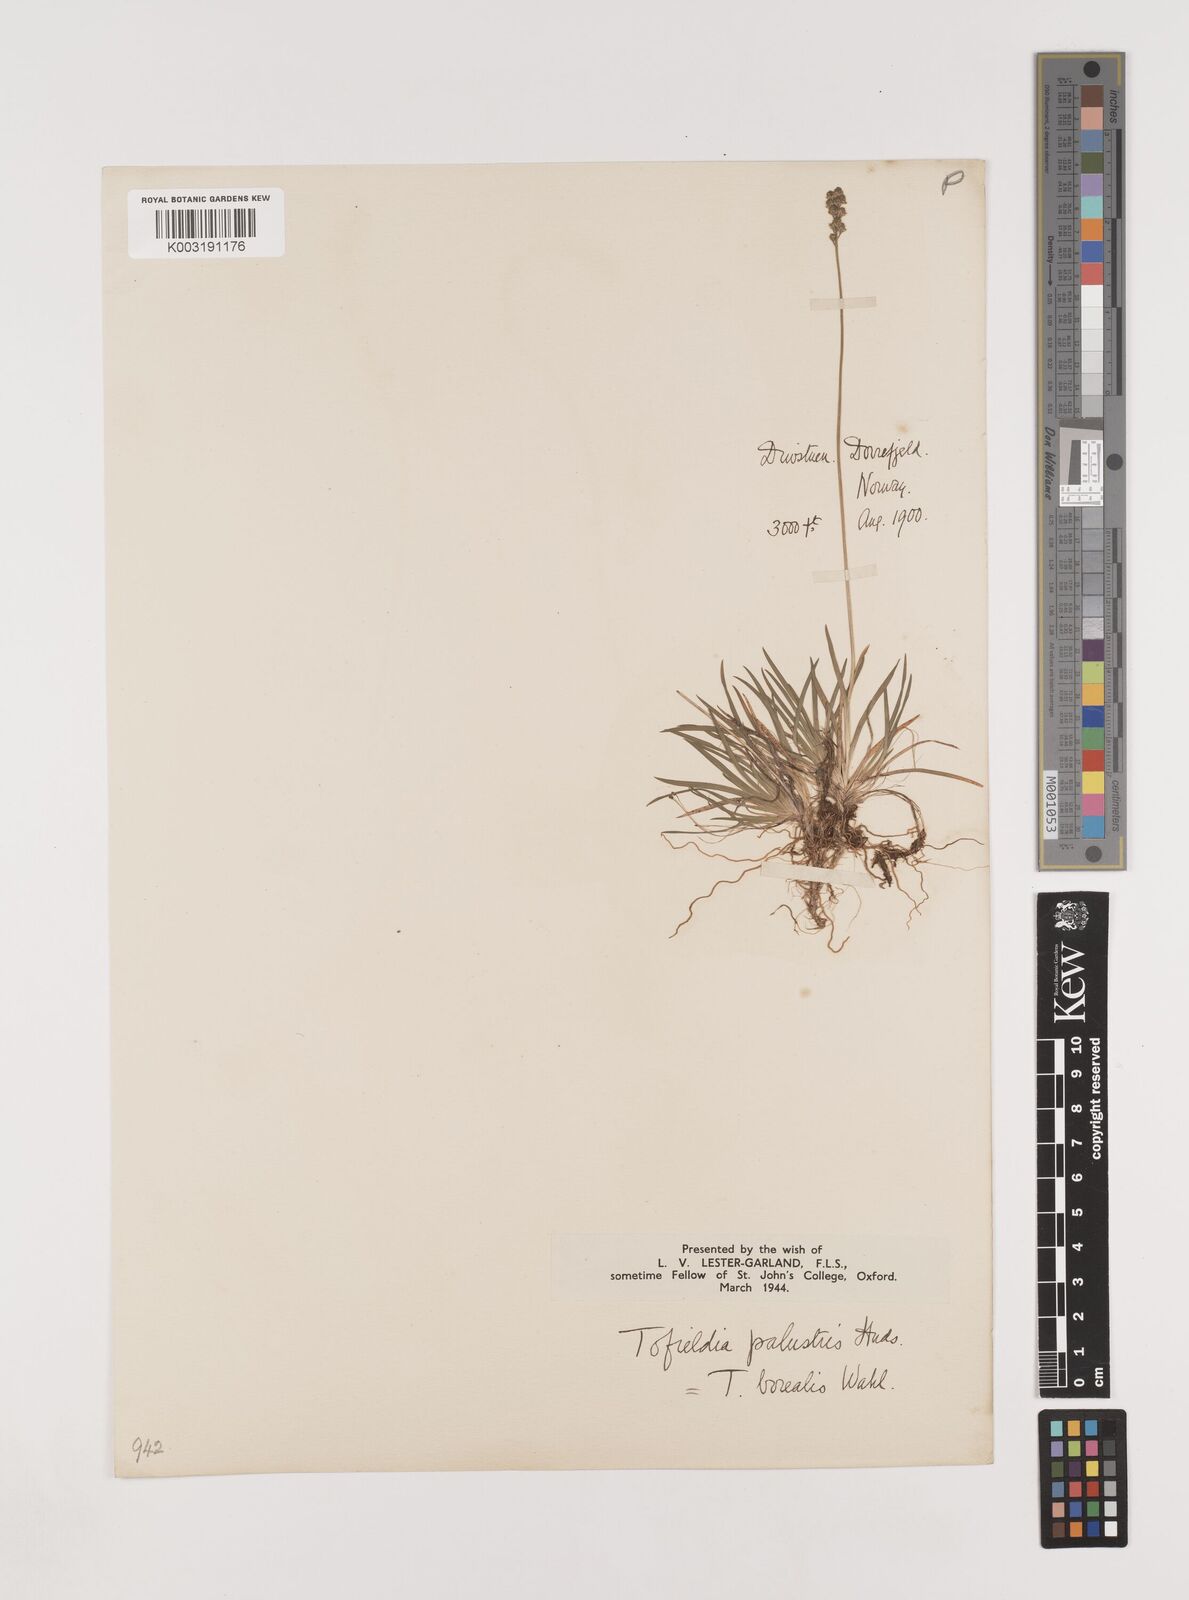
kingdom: Plantae
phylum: Tracheophyta
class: Liliopsida
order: Alismatales
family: Tofieldiaceae
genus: Tofieldia
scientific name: Tofieldia pusilla
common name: Scottish false asphodel
